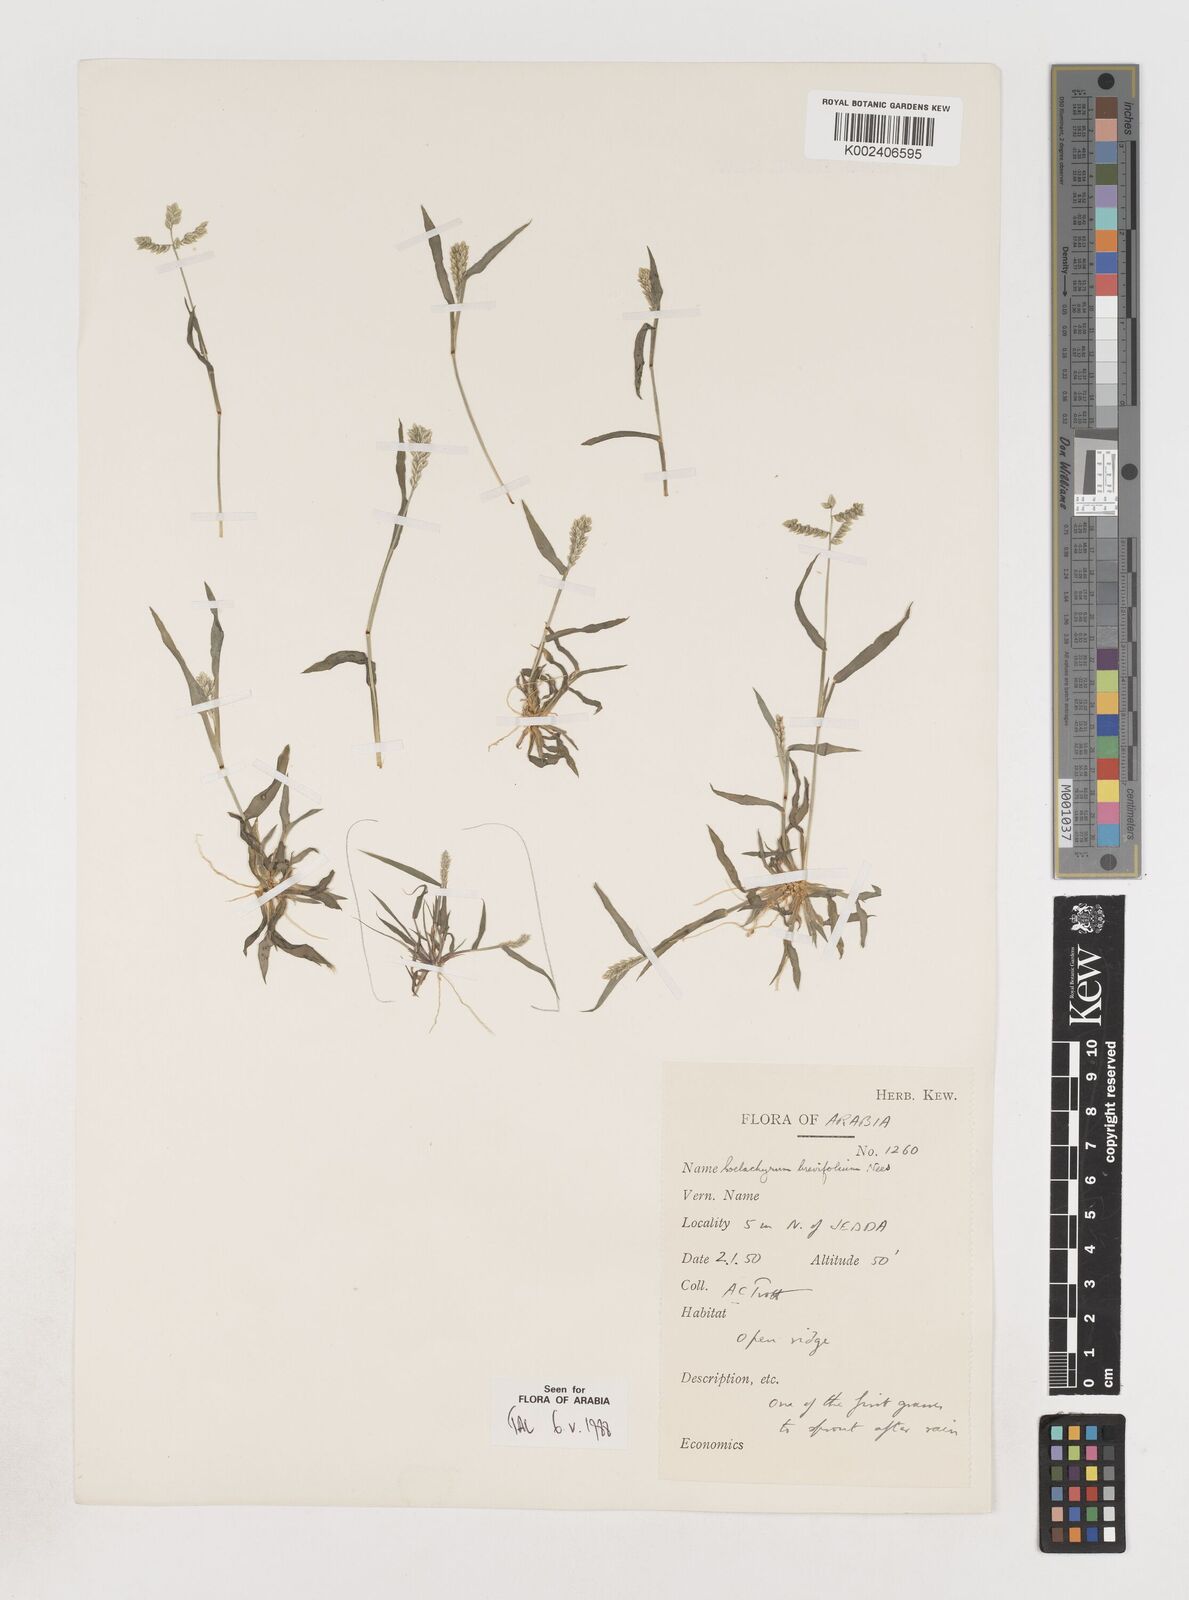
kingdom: Plantae
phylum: Tracheophyta
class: Liliopsida
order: Poales
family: Poaceae
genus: Coelachyrum
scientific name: Coelachyrum brevifolium
